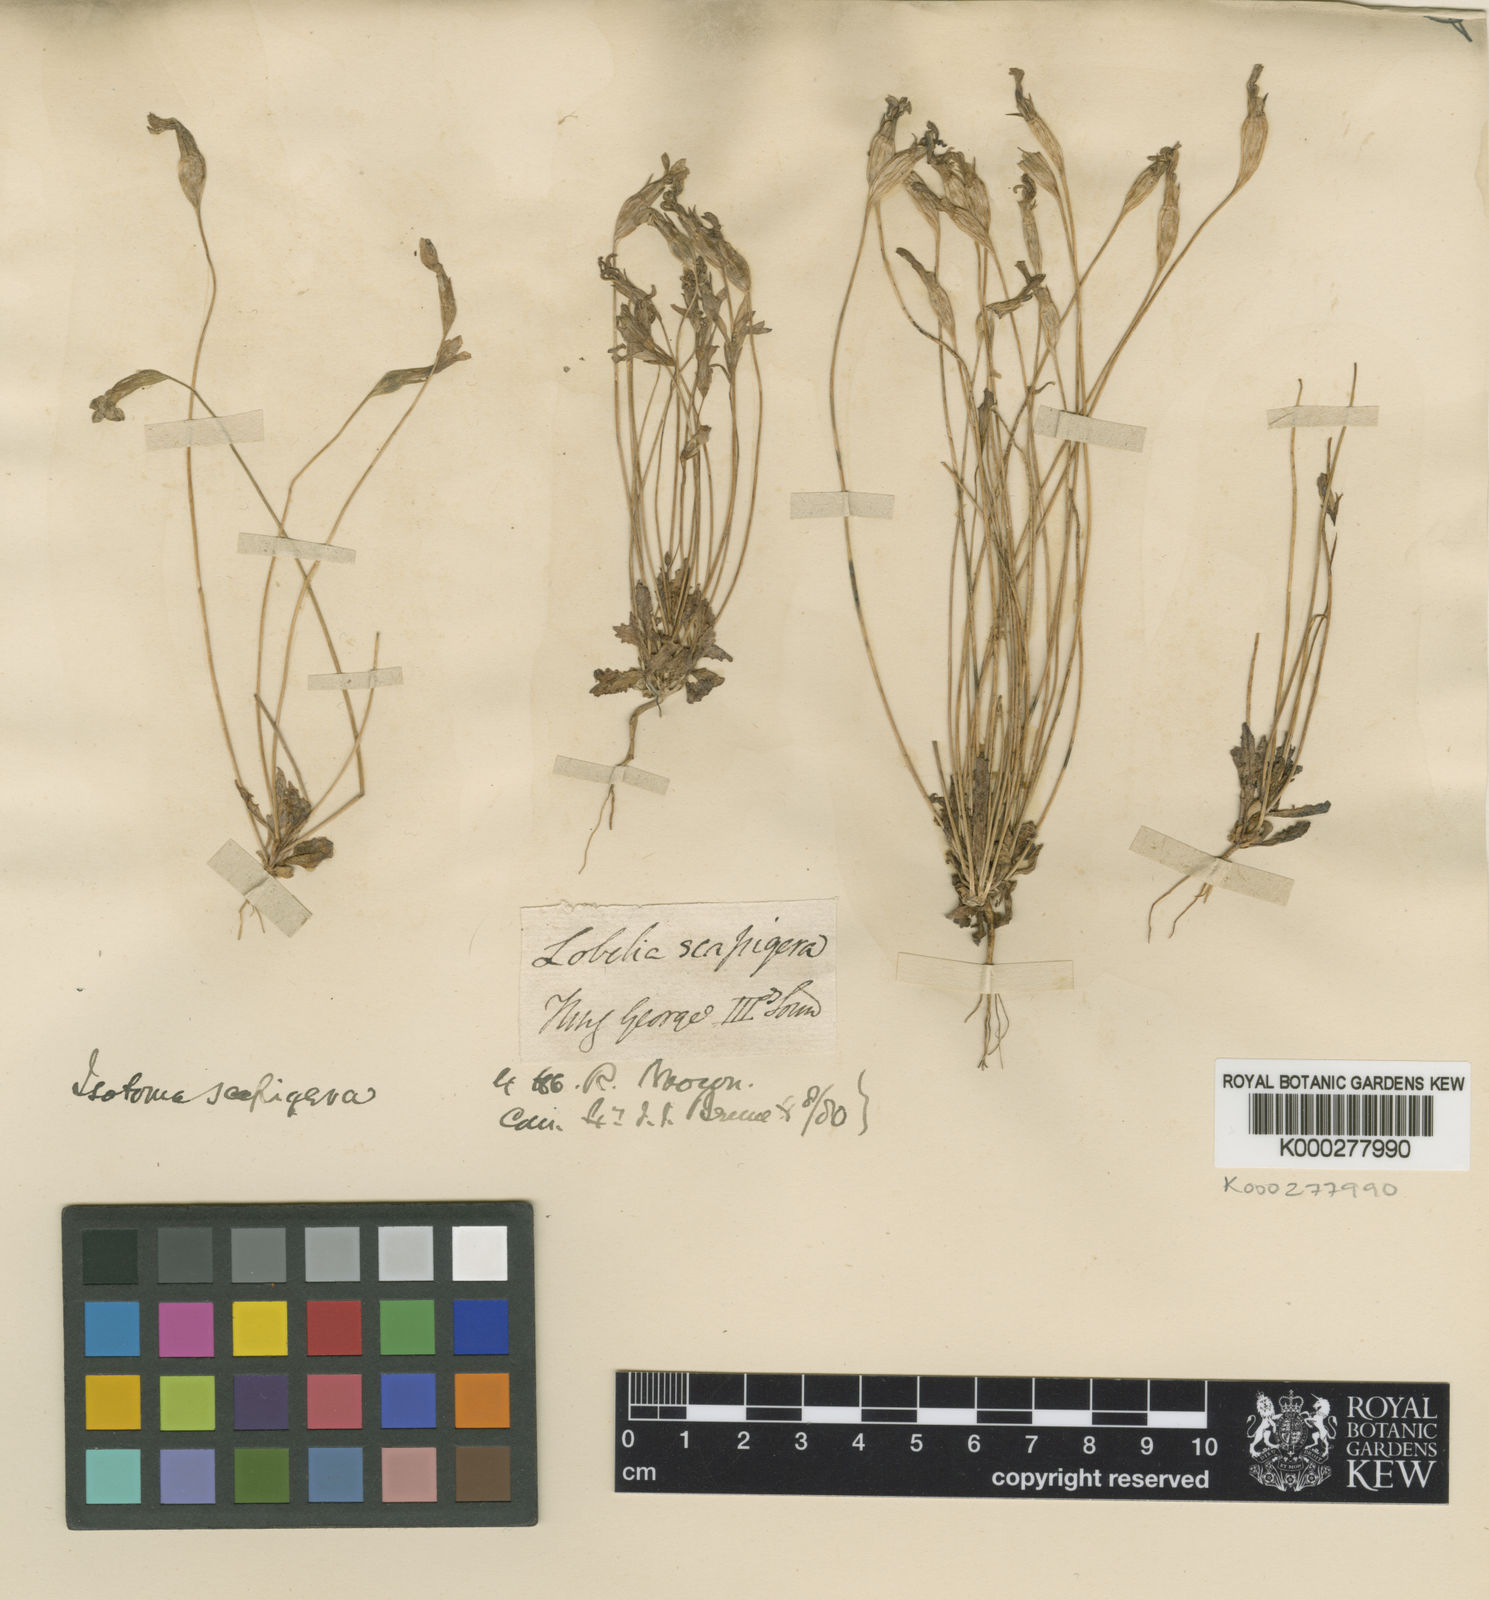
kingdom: Plantae
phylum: Tracheophyta
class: Magnoliopsida
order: Asterales
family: Campanulaceae
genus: Isotoma
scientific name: Isotoma scapigera
